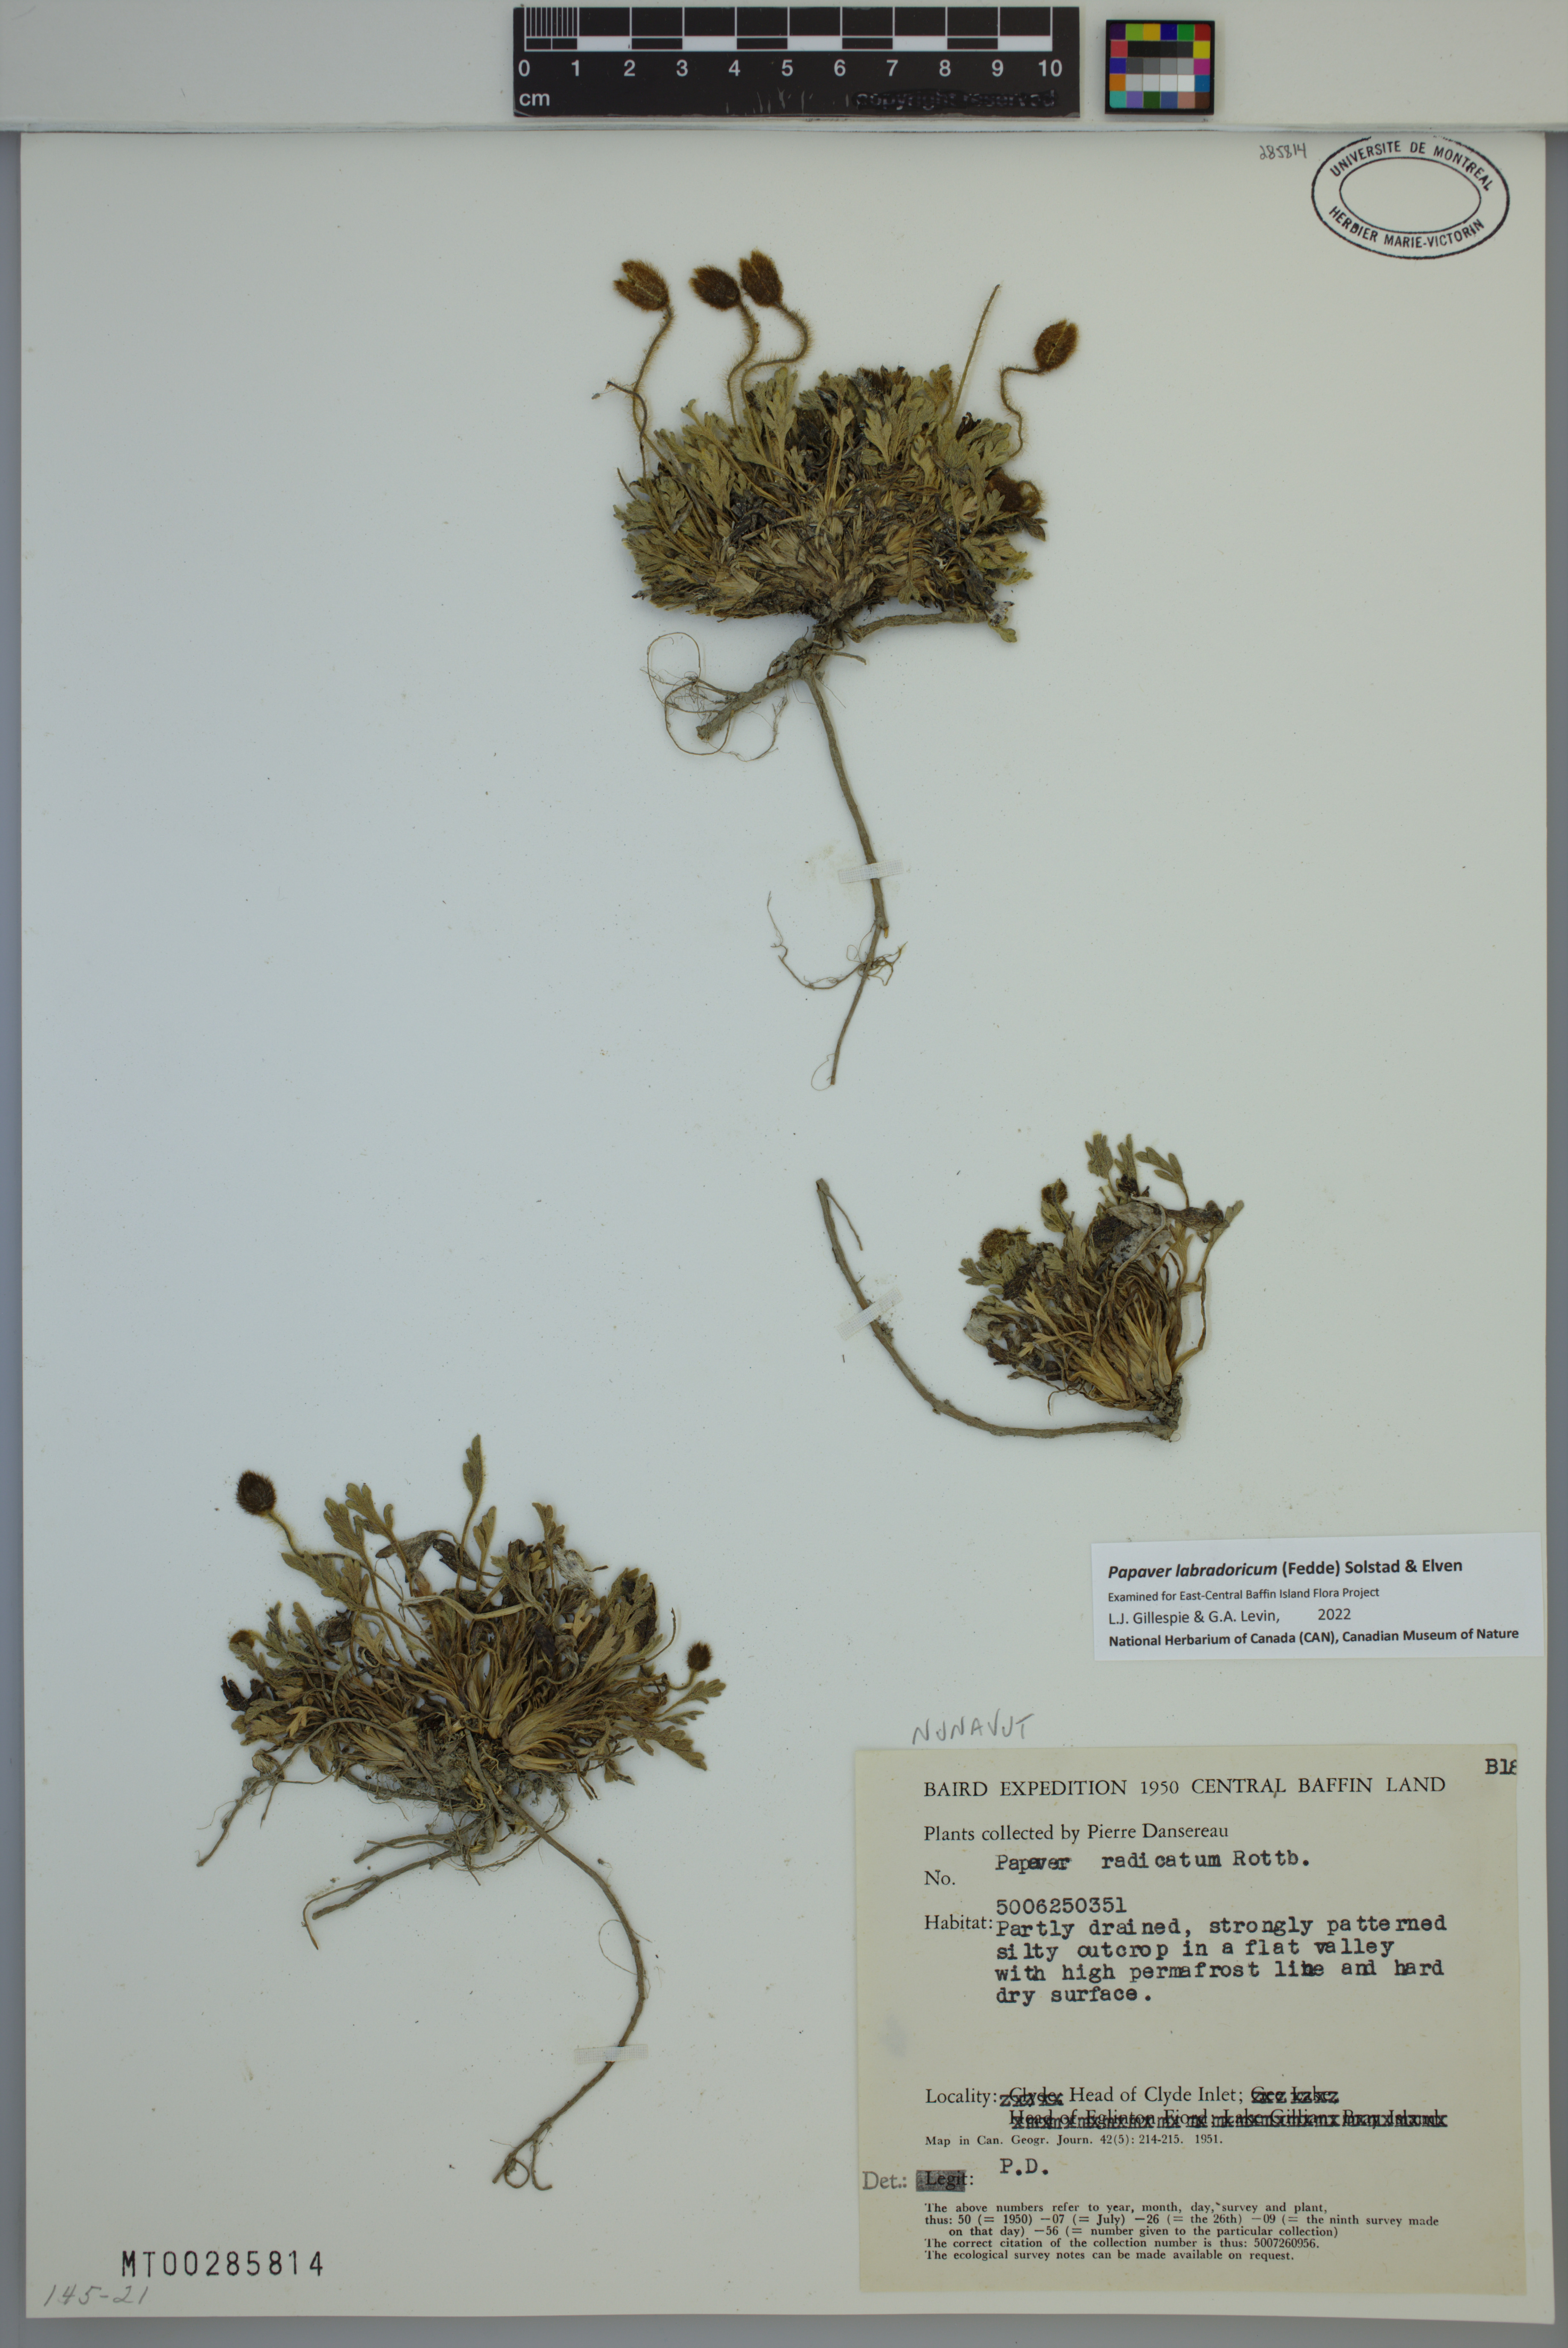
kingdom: Plantae
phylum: Tracheophyta
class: Magnoliopsida
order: Ranunculales
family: Papaveraceae
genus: Papaver
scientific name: Papaver radicatum
